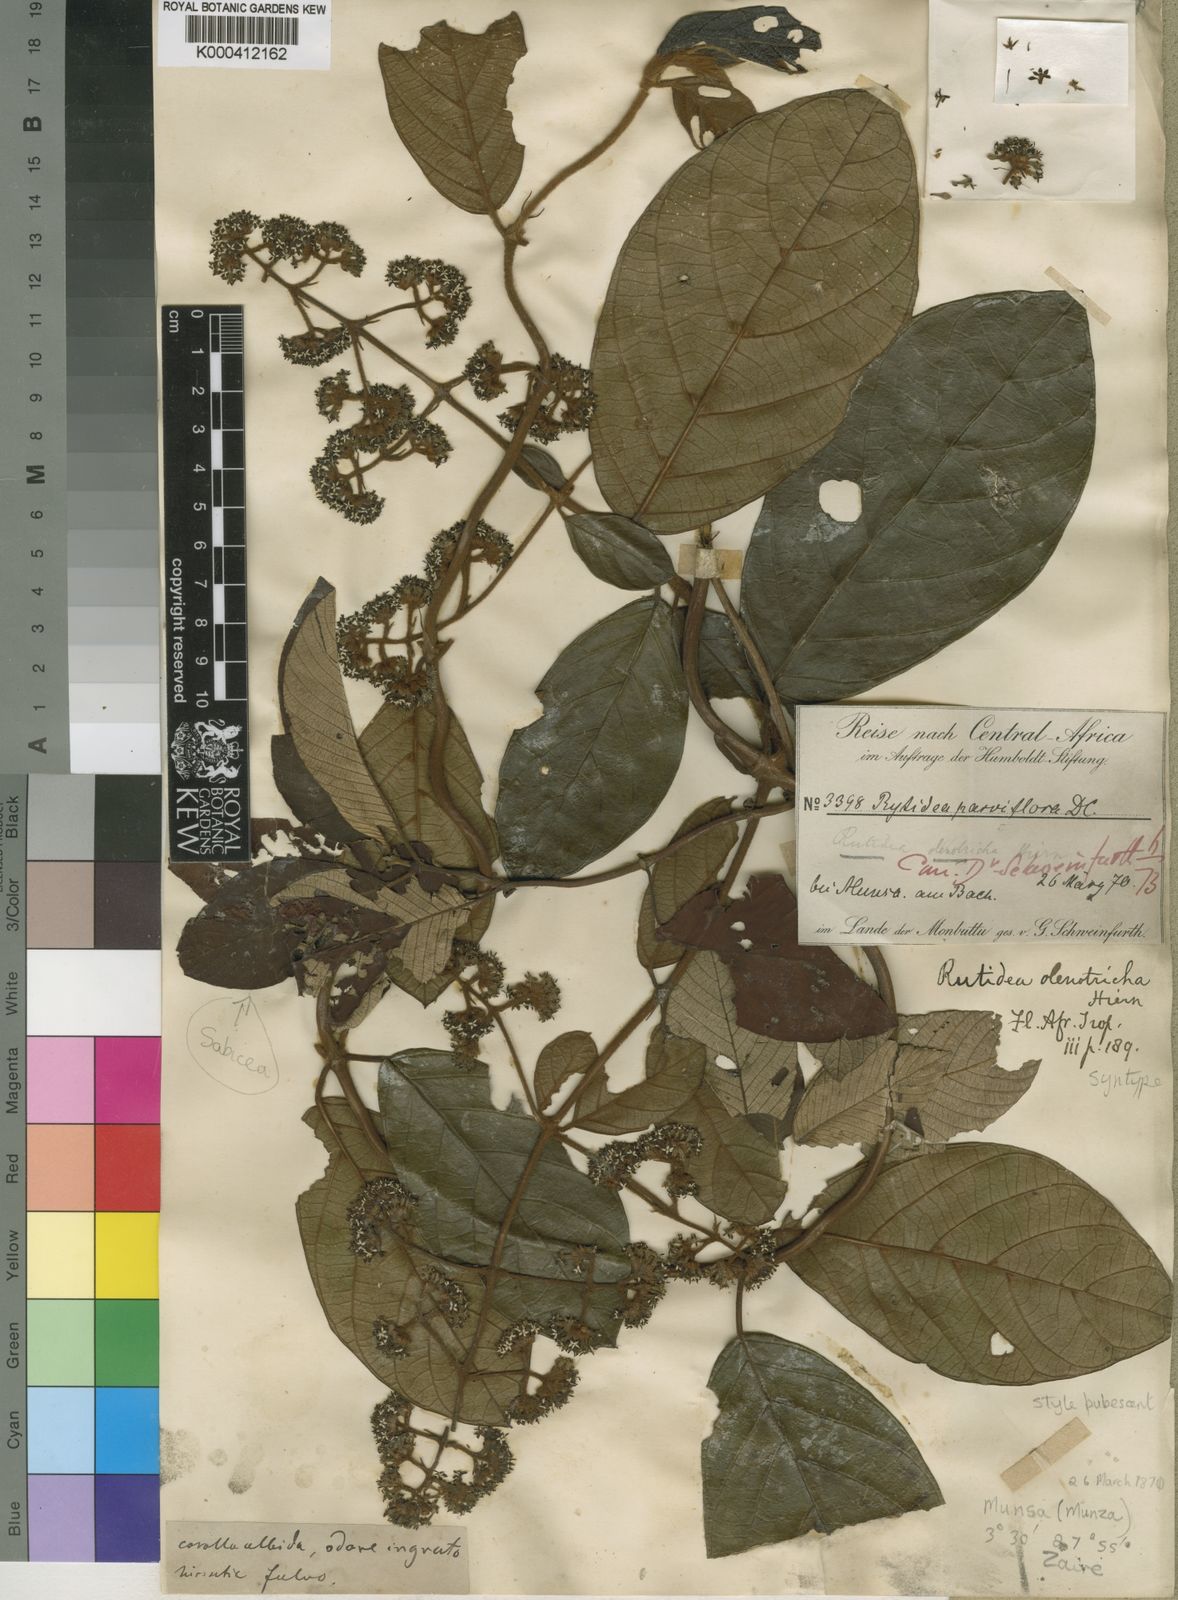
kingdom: Plantae
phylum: Tracheophyta
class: Magnoliopsida
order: Gentianales
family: Rubiaceae
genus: Rutidea
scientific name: Rutidea olenotricha
